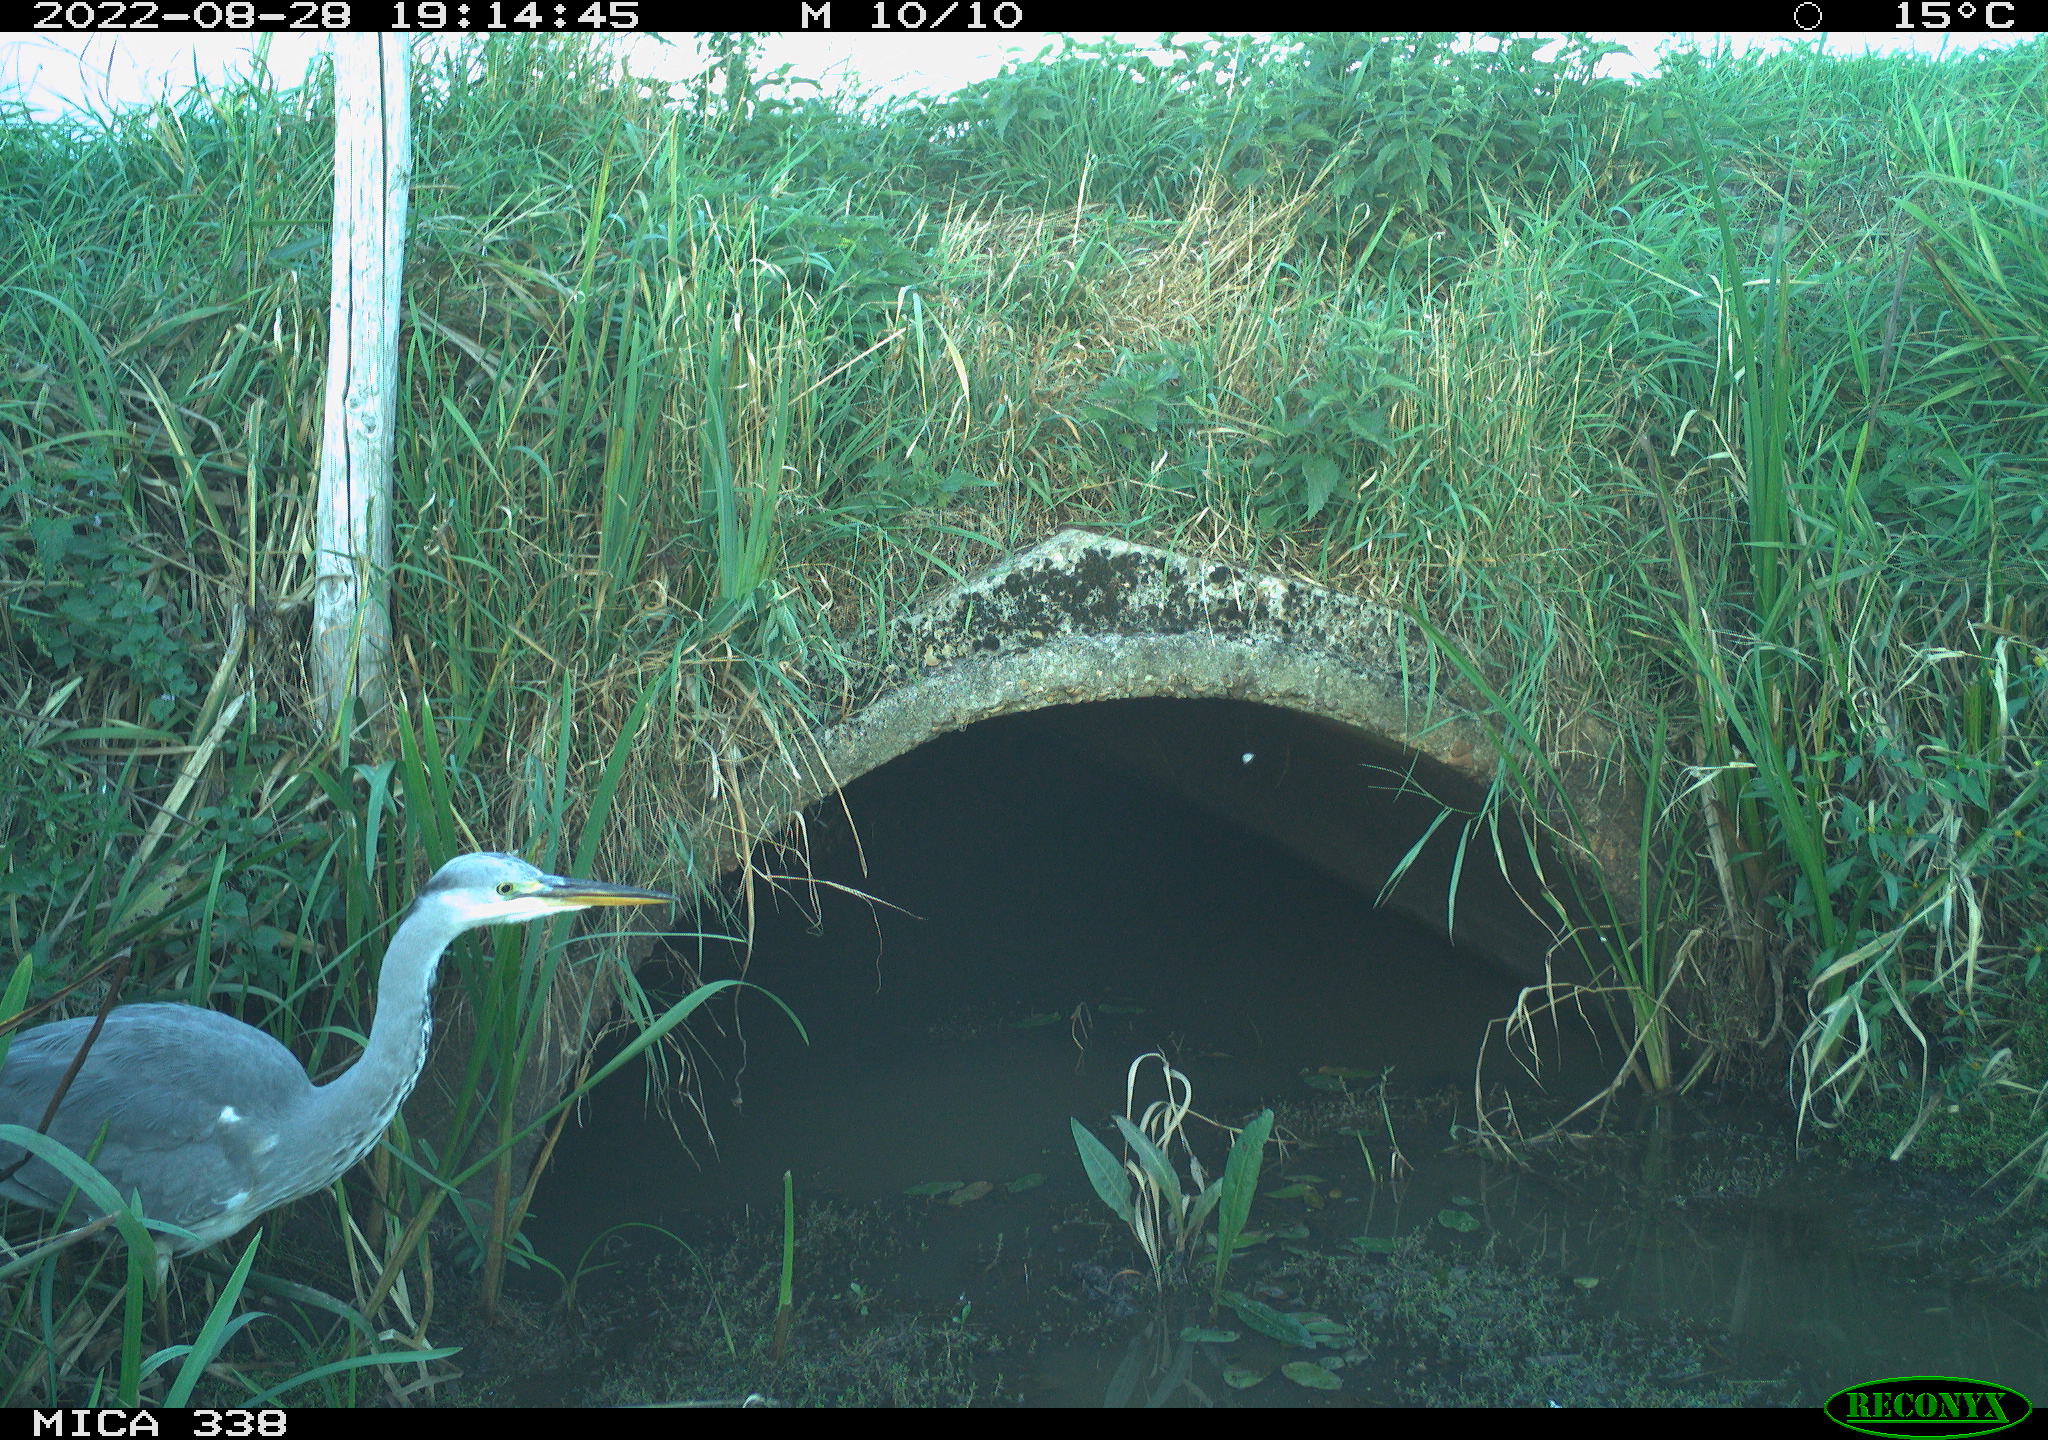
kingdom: Animalia
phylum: Chordata
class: Aves
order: Pelecaniformes
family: Ardeidae
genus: Ardea
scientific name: Ardea cinerea
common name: Grey heron
